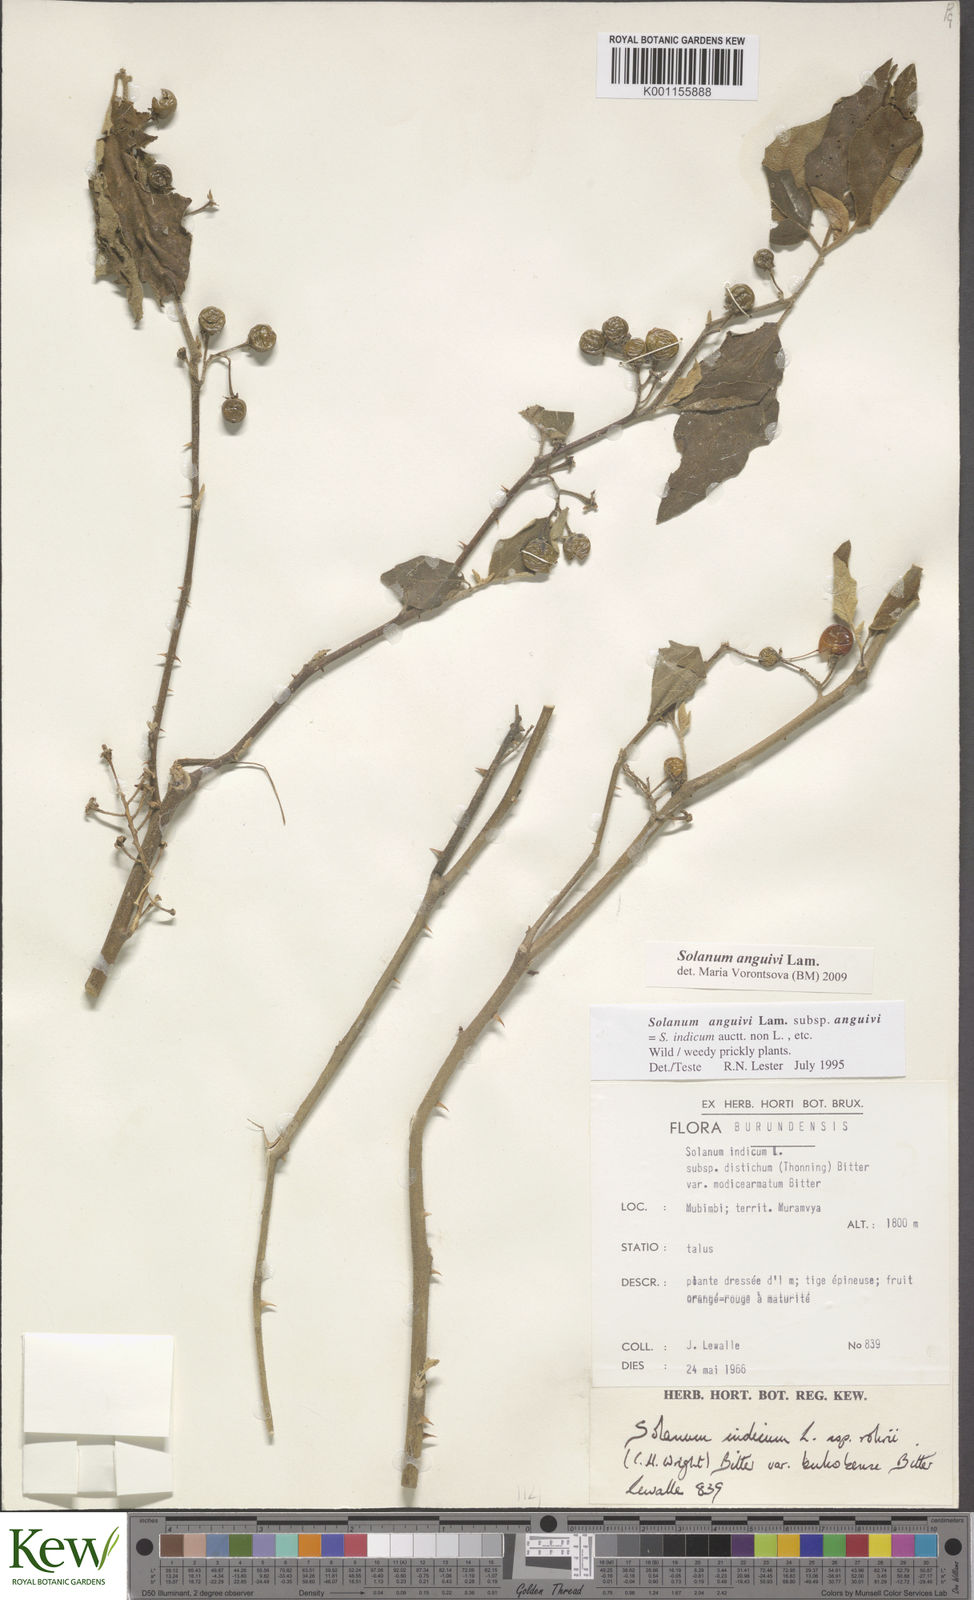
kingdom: Plantae
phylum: Tracheophyta
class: Magnoliopsida
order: Solanales
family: Solanaceae
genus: Solanum
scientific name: Solanum anguivi
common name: Forest bitterberry
